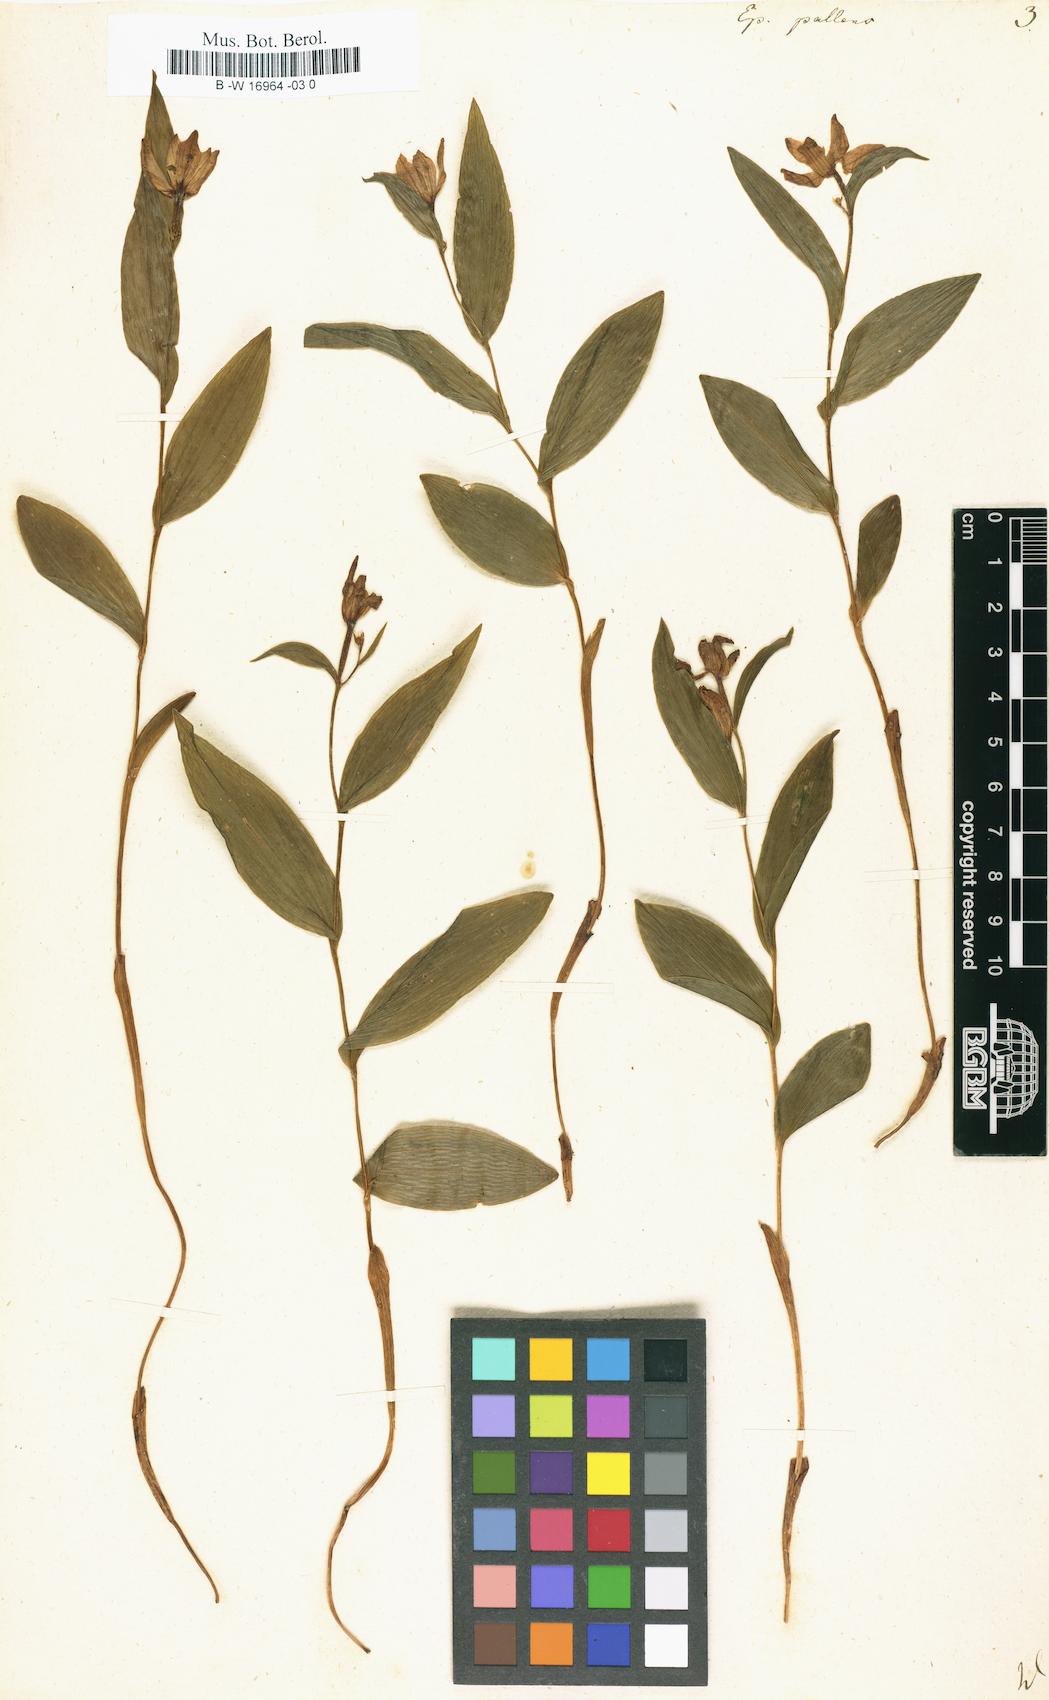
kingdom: Plantae
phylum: Tracheophyta
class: Liliopsida
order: Asparagales
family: Orchidaceae
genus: Cephalanthera
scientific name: Cephalanthera longifolia
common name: Narrow-leaved helleborine
